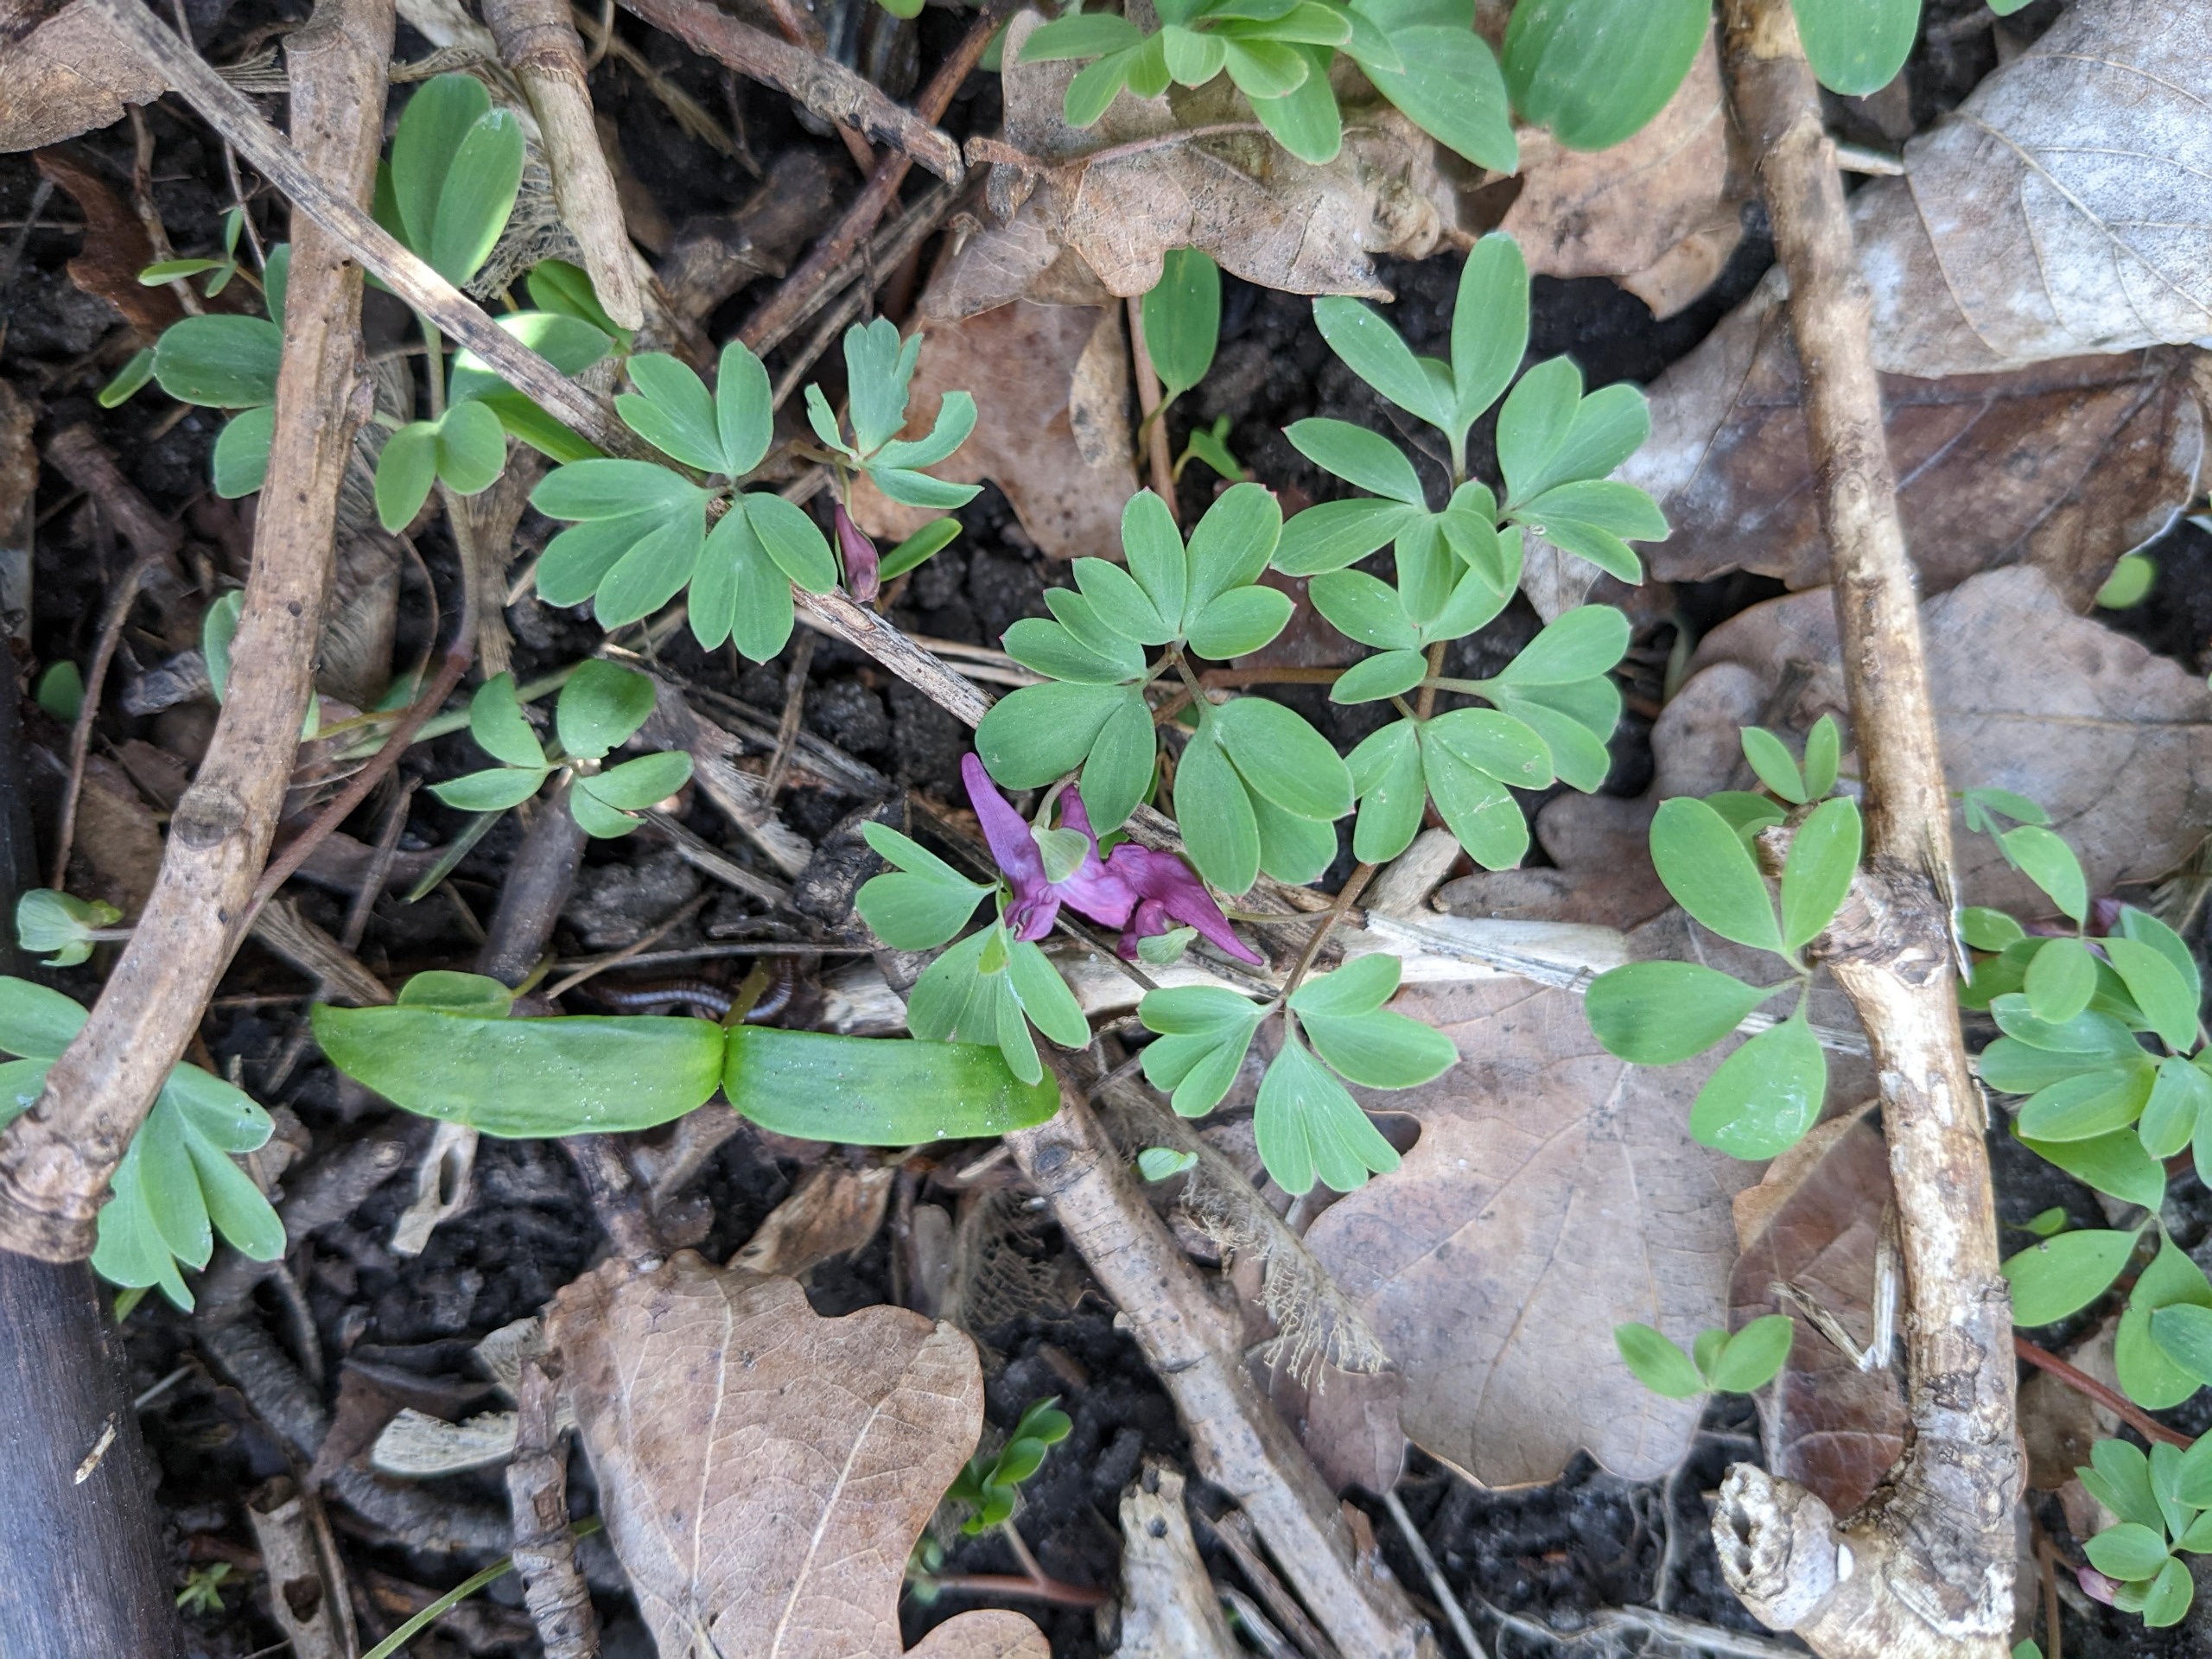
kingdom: Plantae
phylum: Tracheophyta
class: Magnoliopsida
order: Ranunculales
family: Papaveraceae
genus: Corydalis
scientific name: Corydalis intermedia
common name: Liden lærkespore
